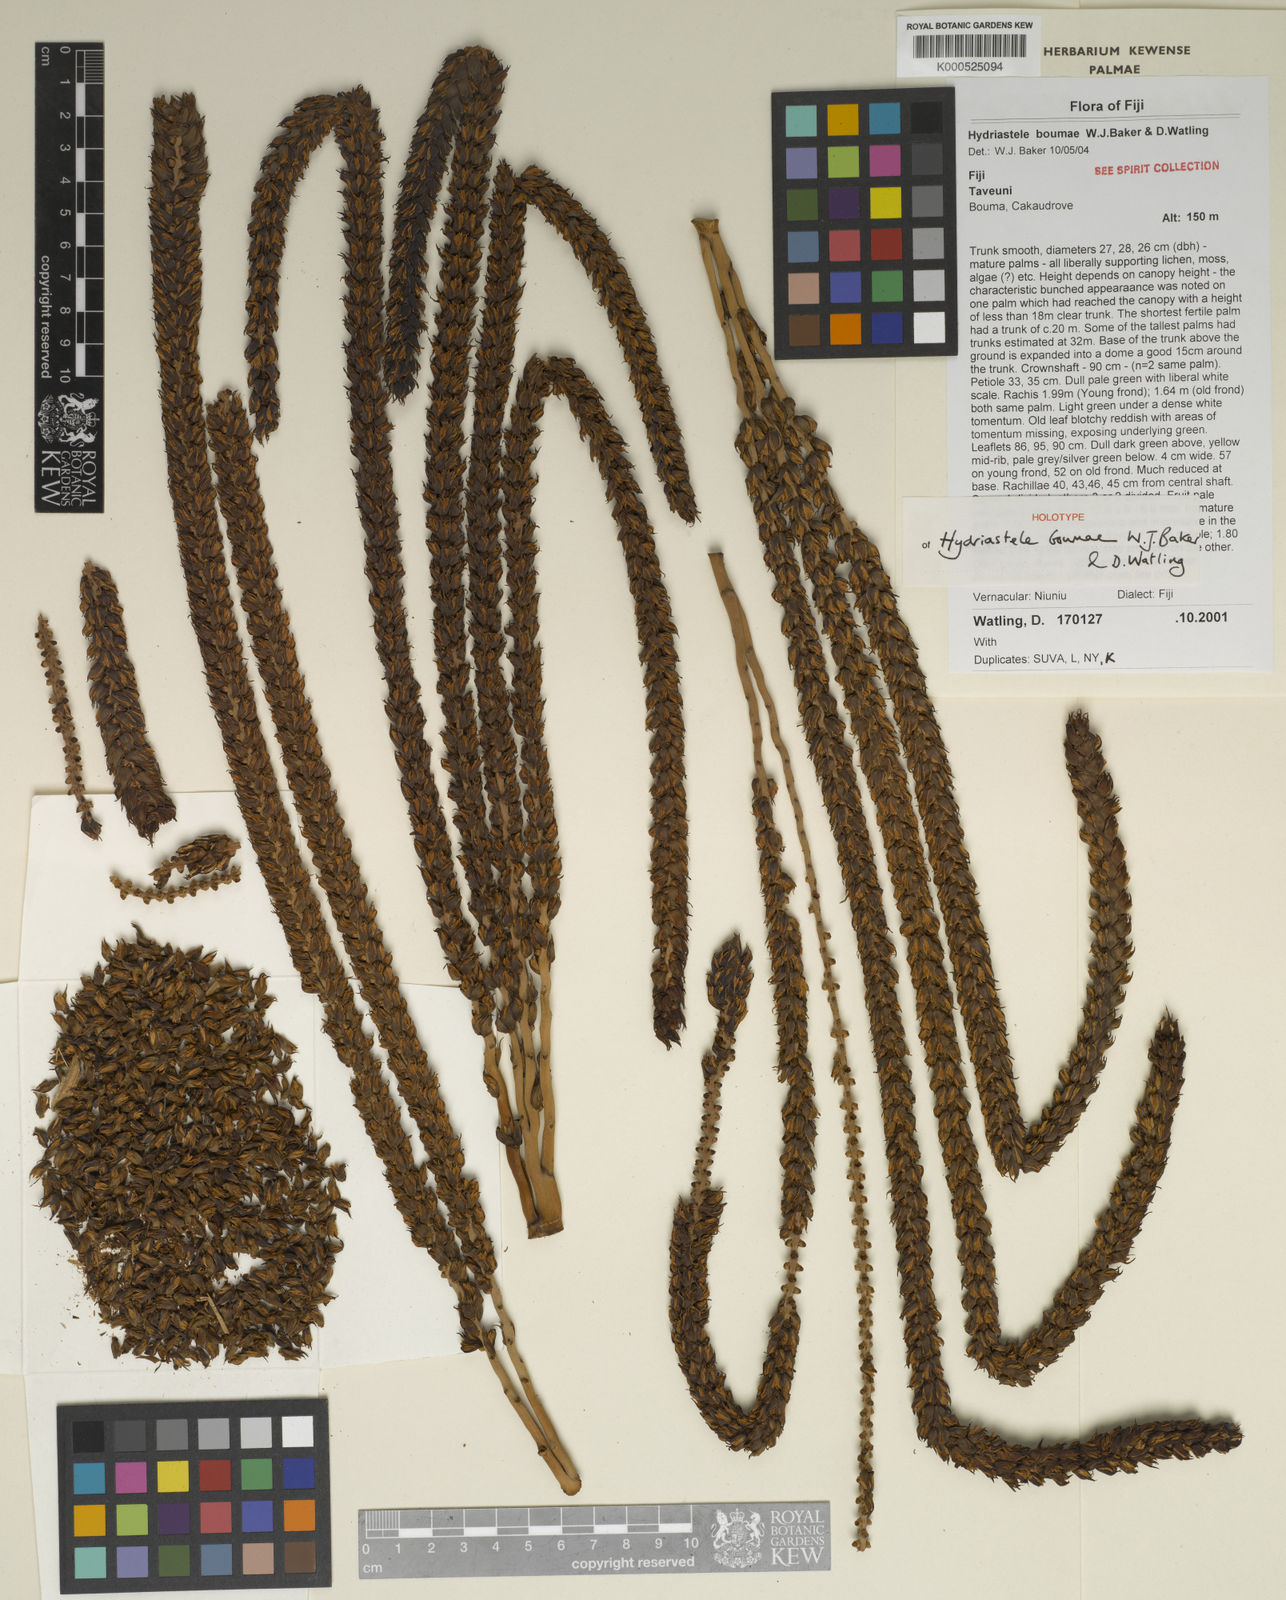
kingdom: Plantae
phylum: Tracheophyta
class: Liliopsida
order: Arecales
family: Arecaceae
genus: Hydriastele
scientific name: Hydriastele boumae
